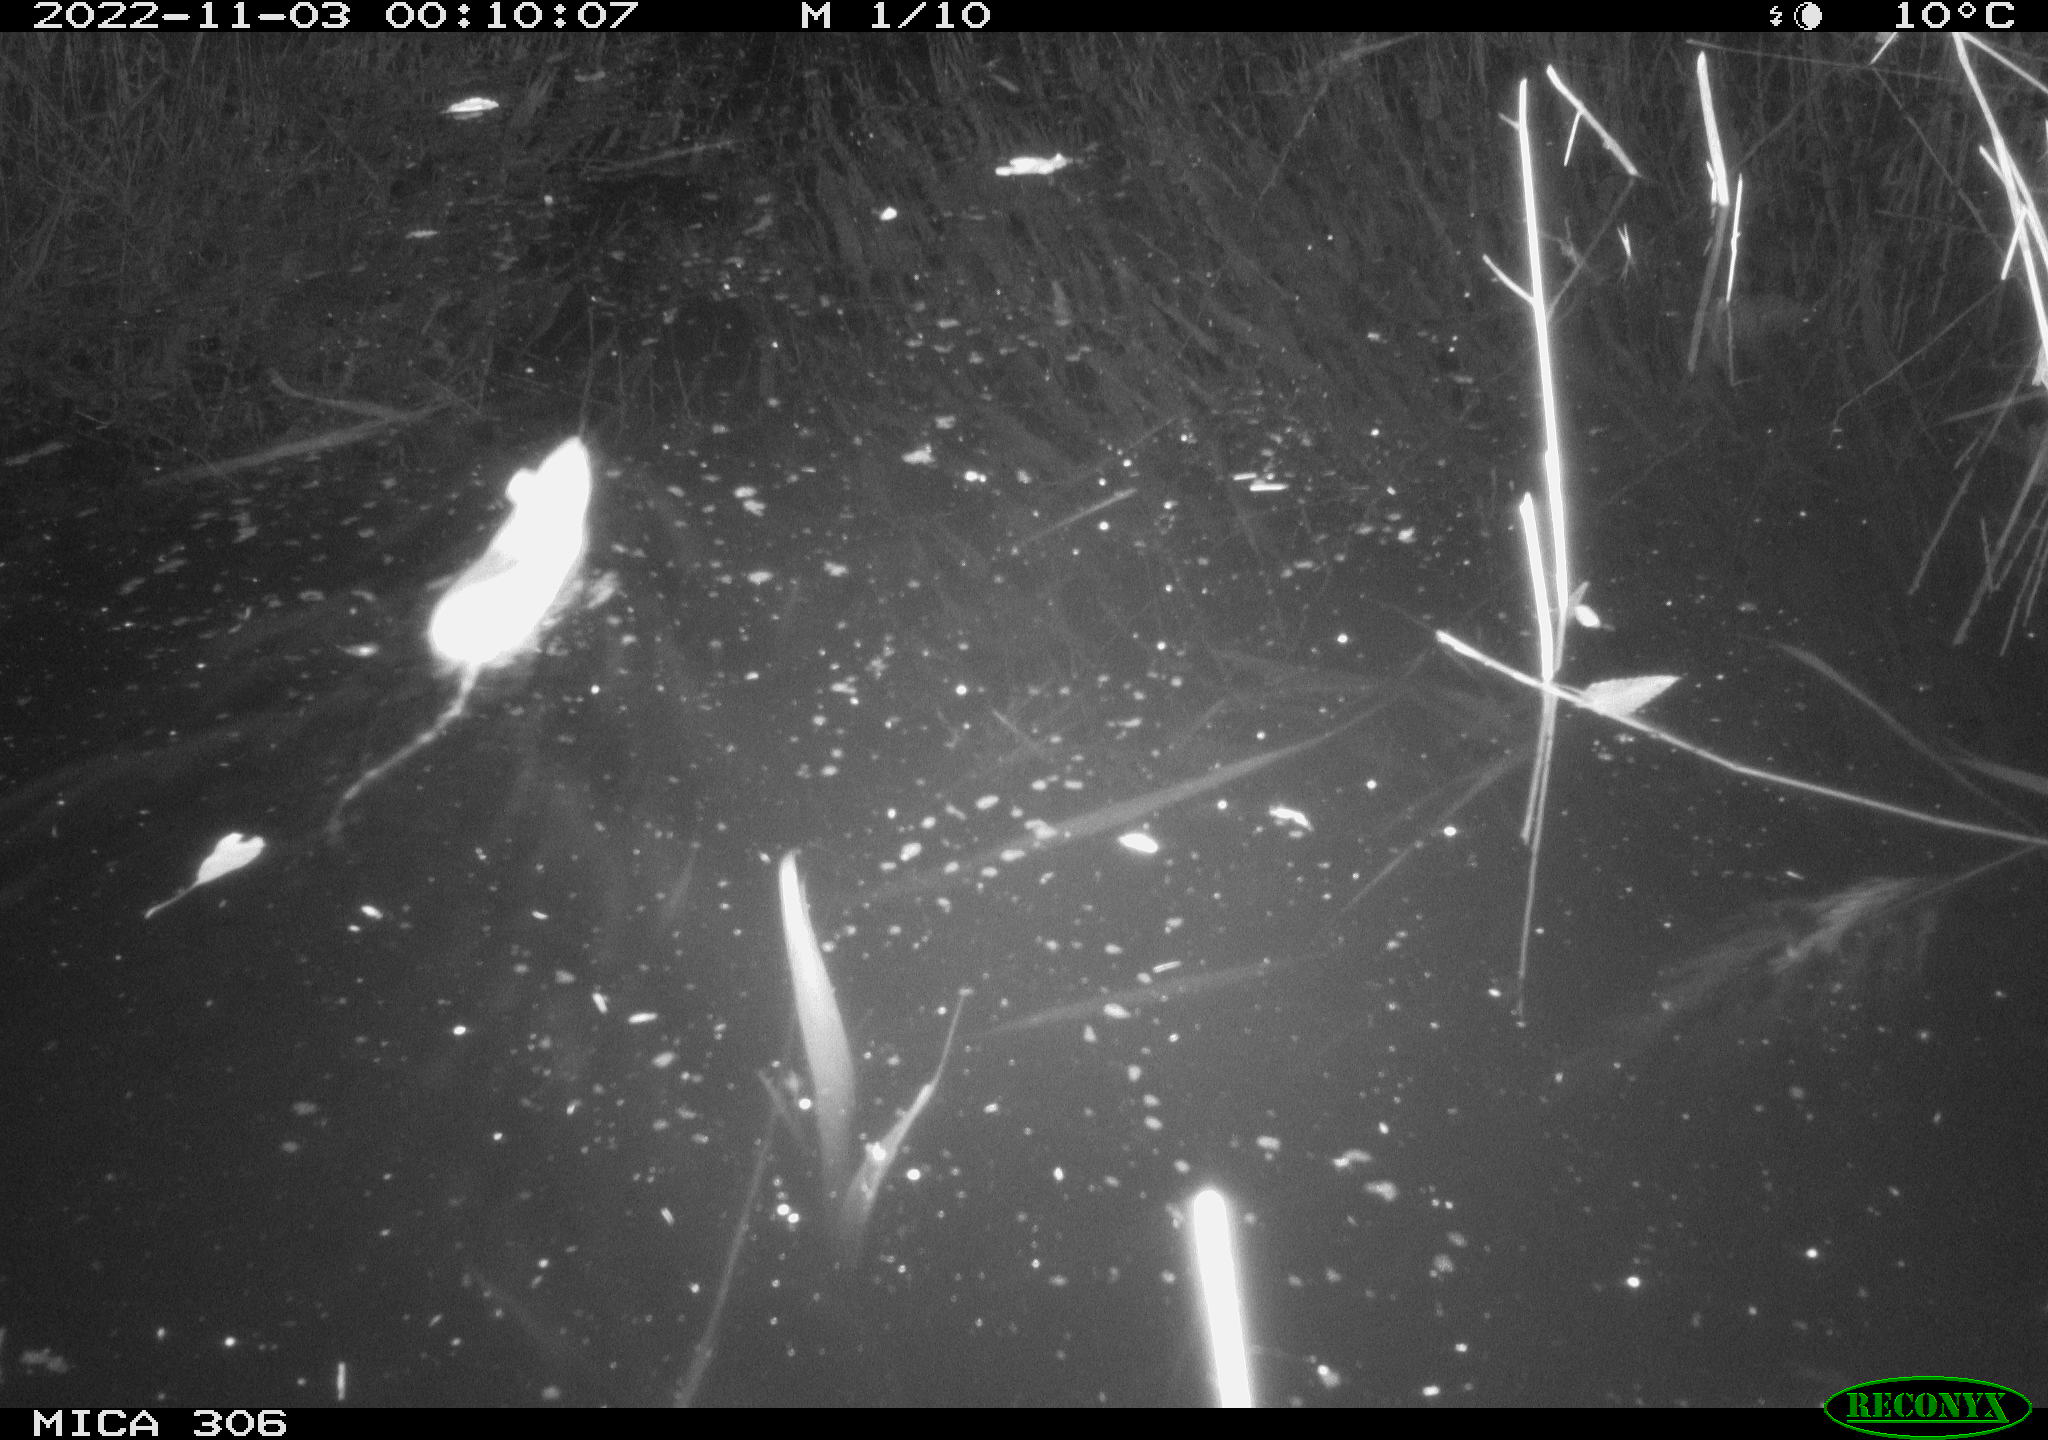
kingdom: Animalia
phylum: Chordata
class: Mammalia
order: Rodentia
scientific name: Rodentia
